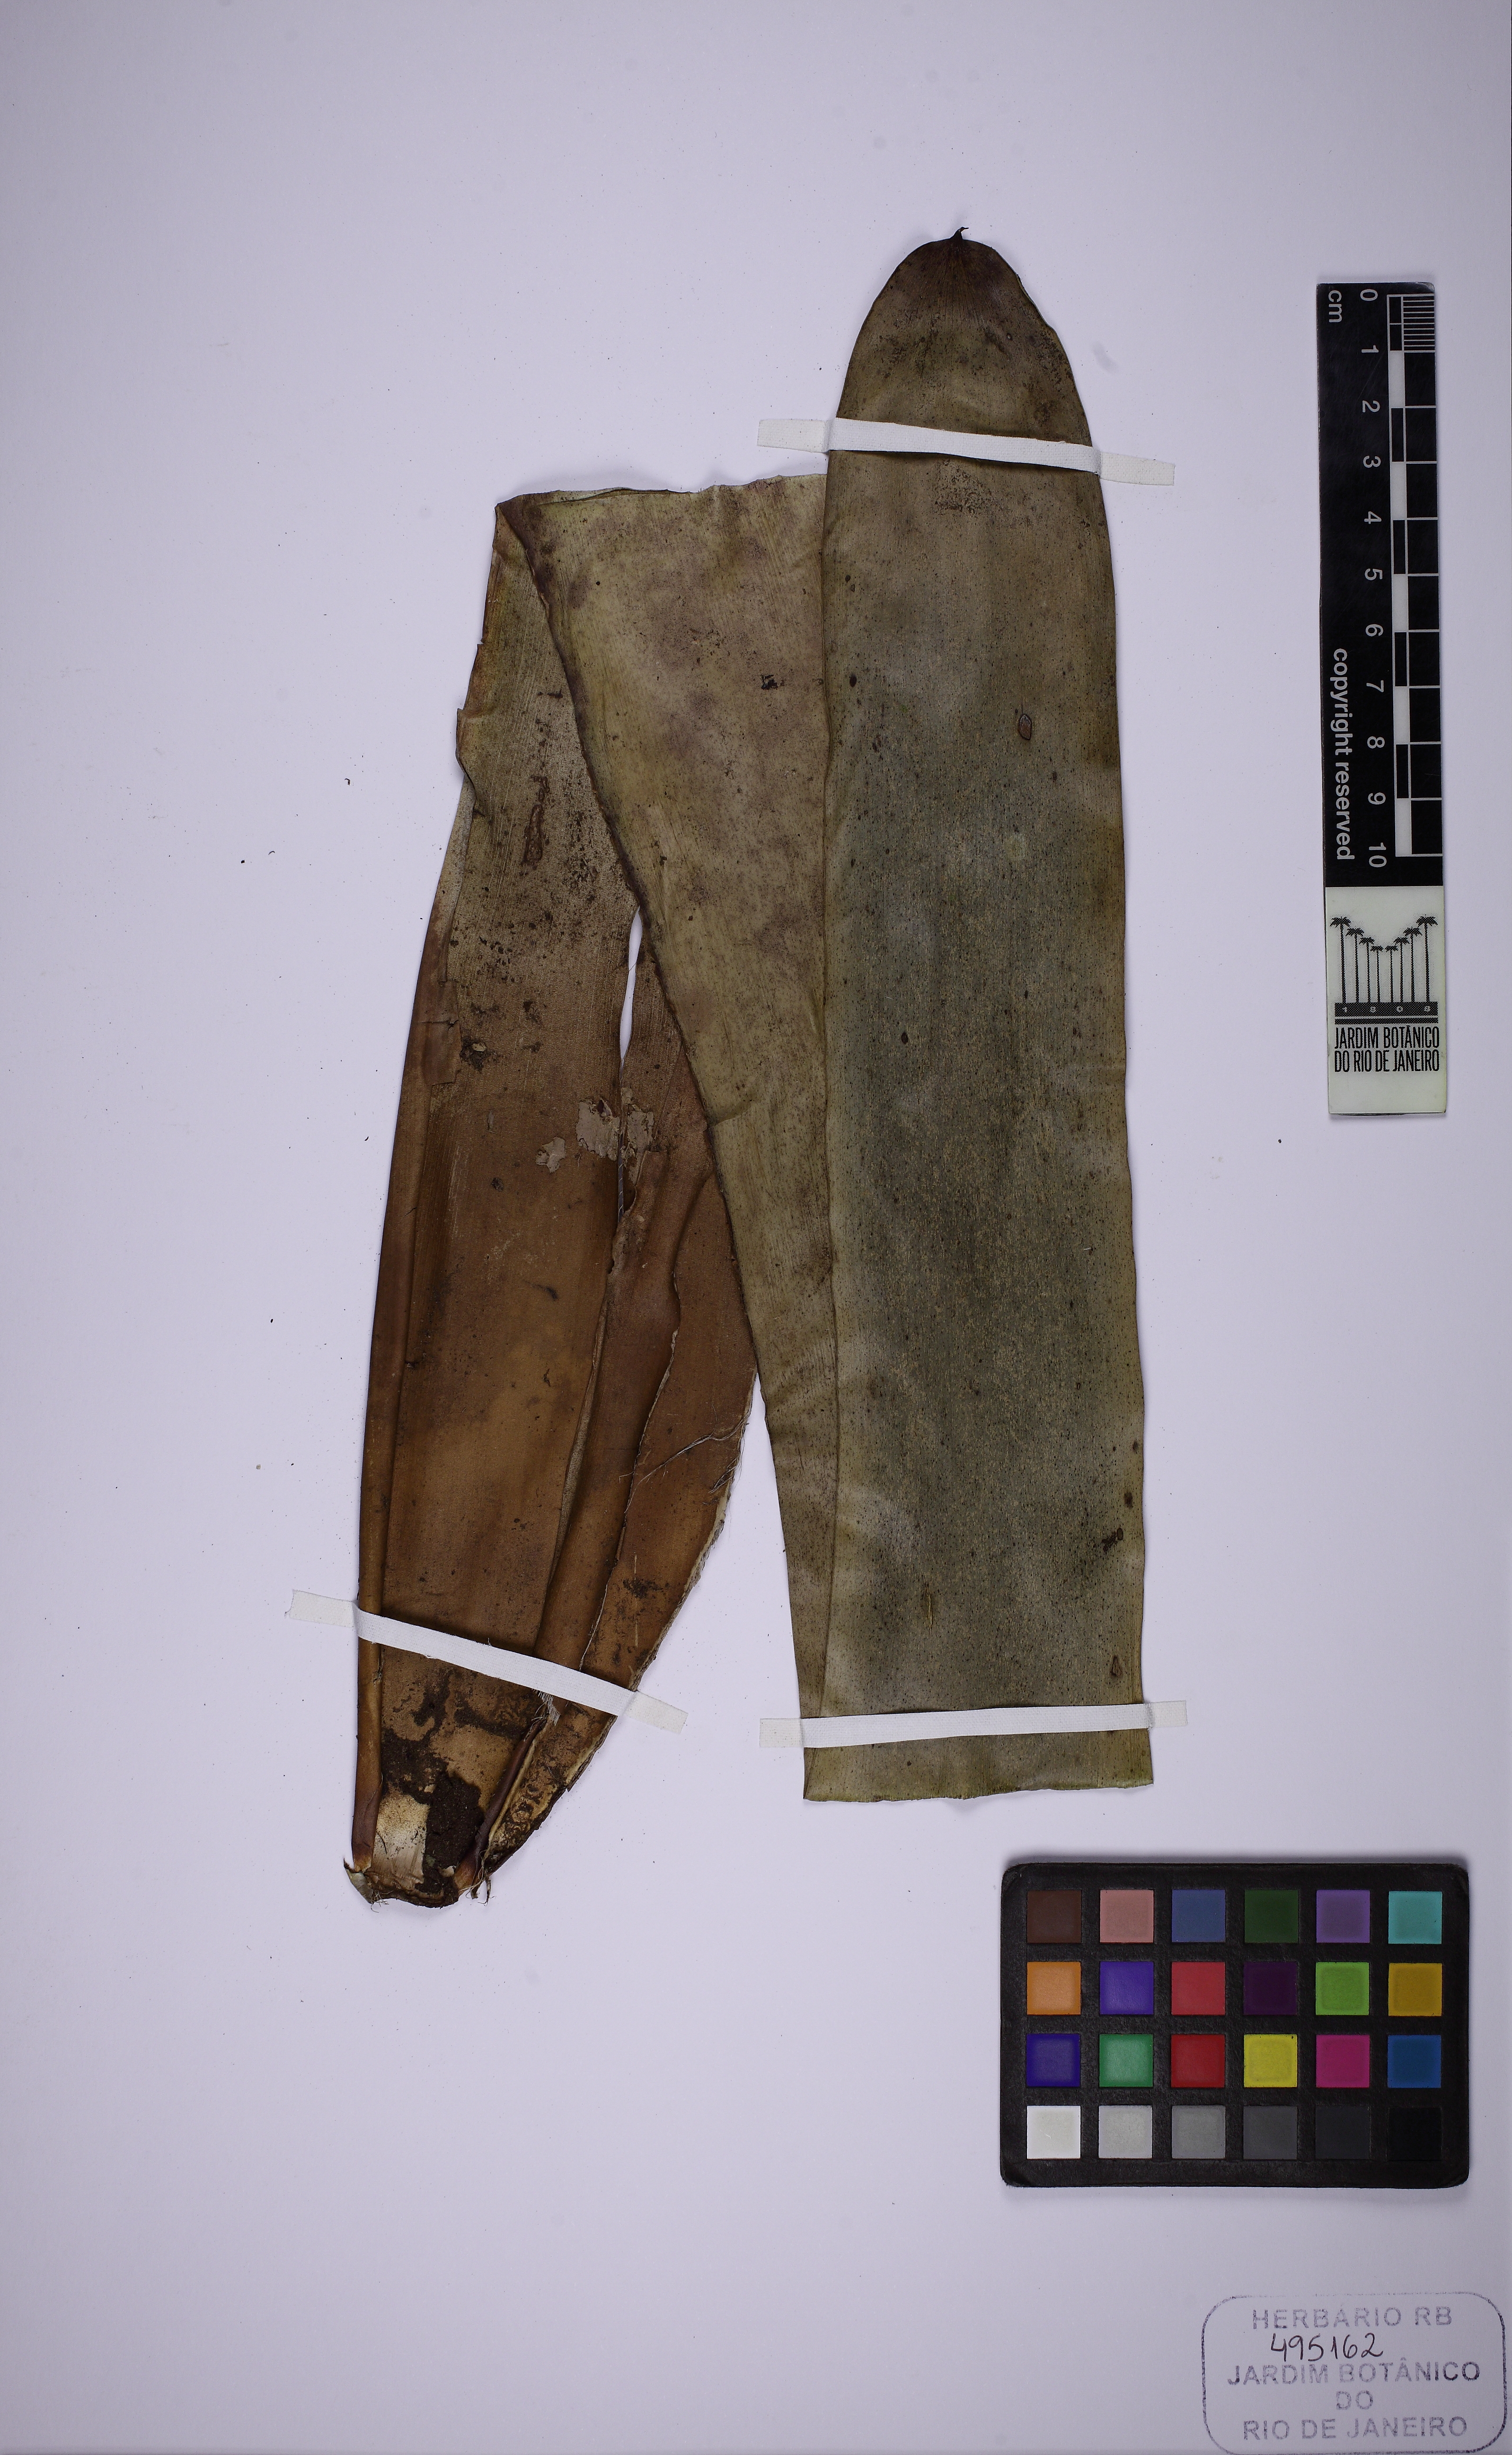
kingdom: Plantae
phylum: Tracheophyta
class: Liliopsida
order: Poales
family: Bromeliaceae
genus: Vriesea
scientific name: Vriesea friburgensis
